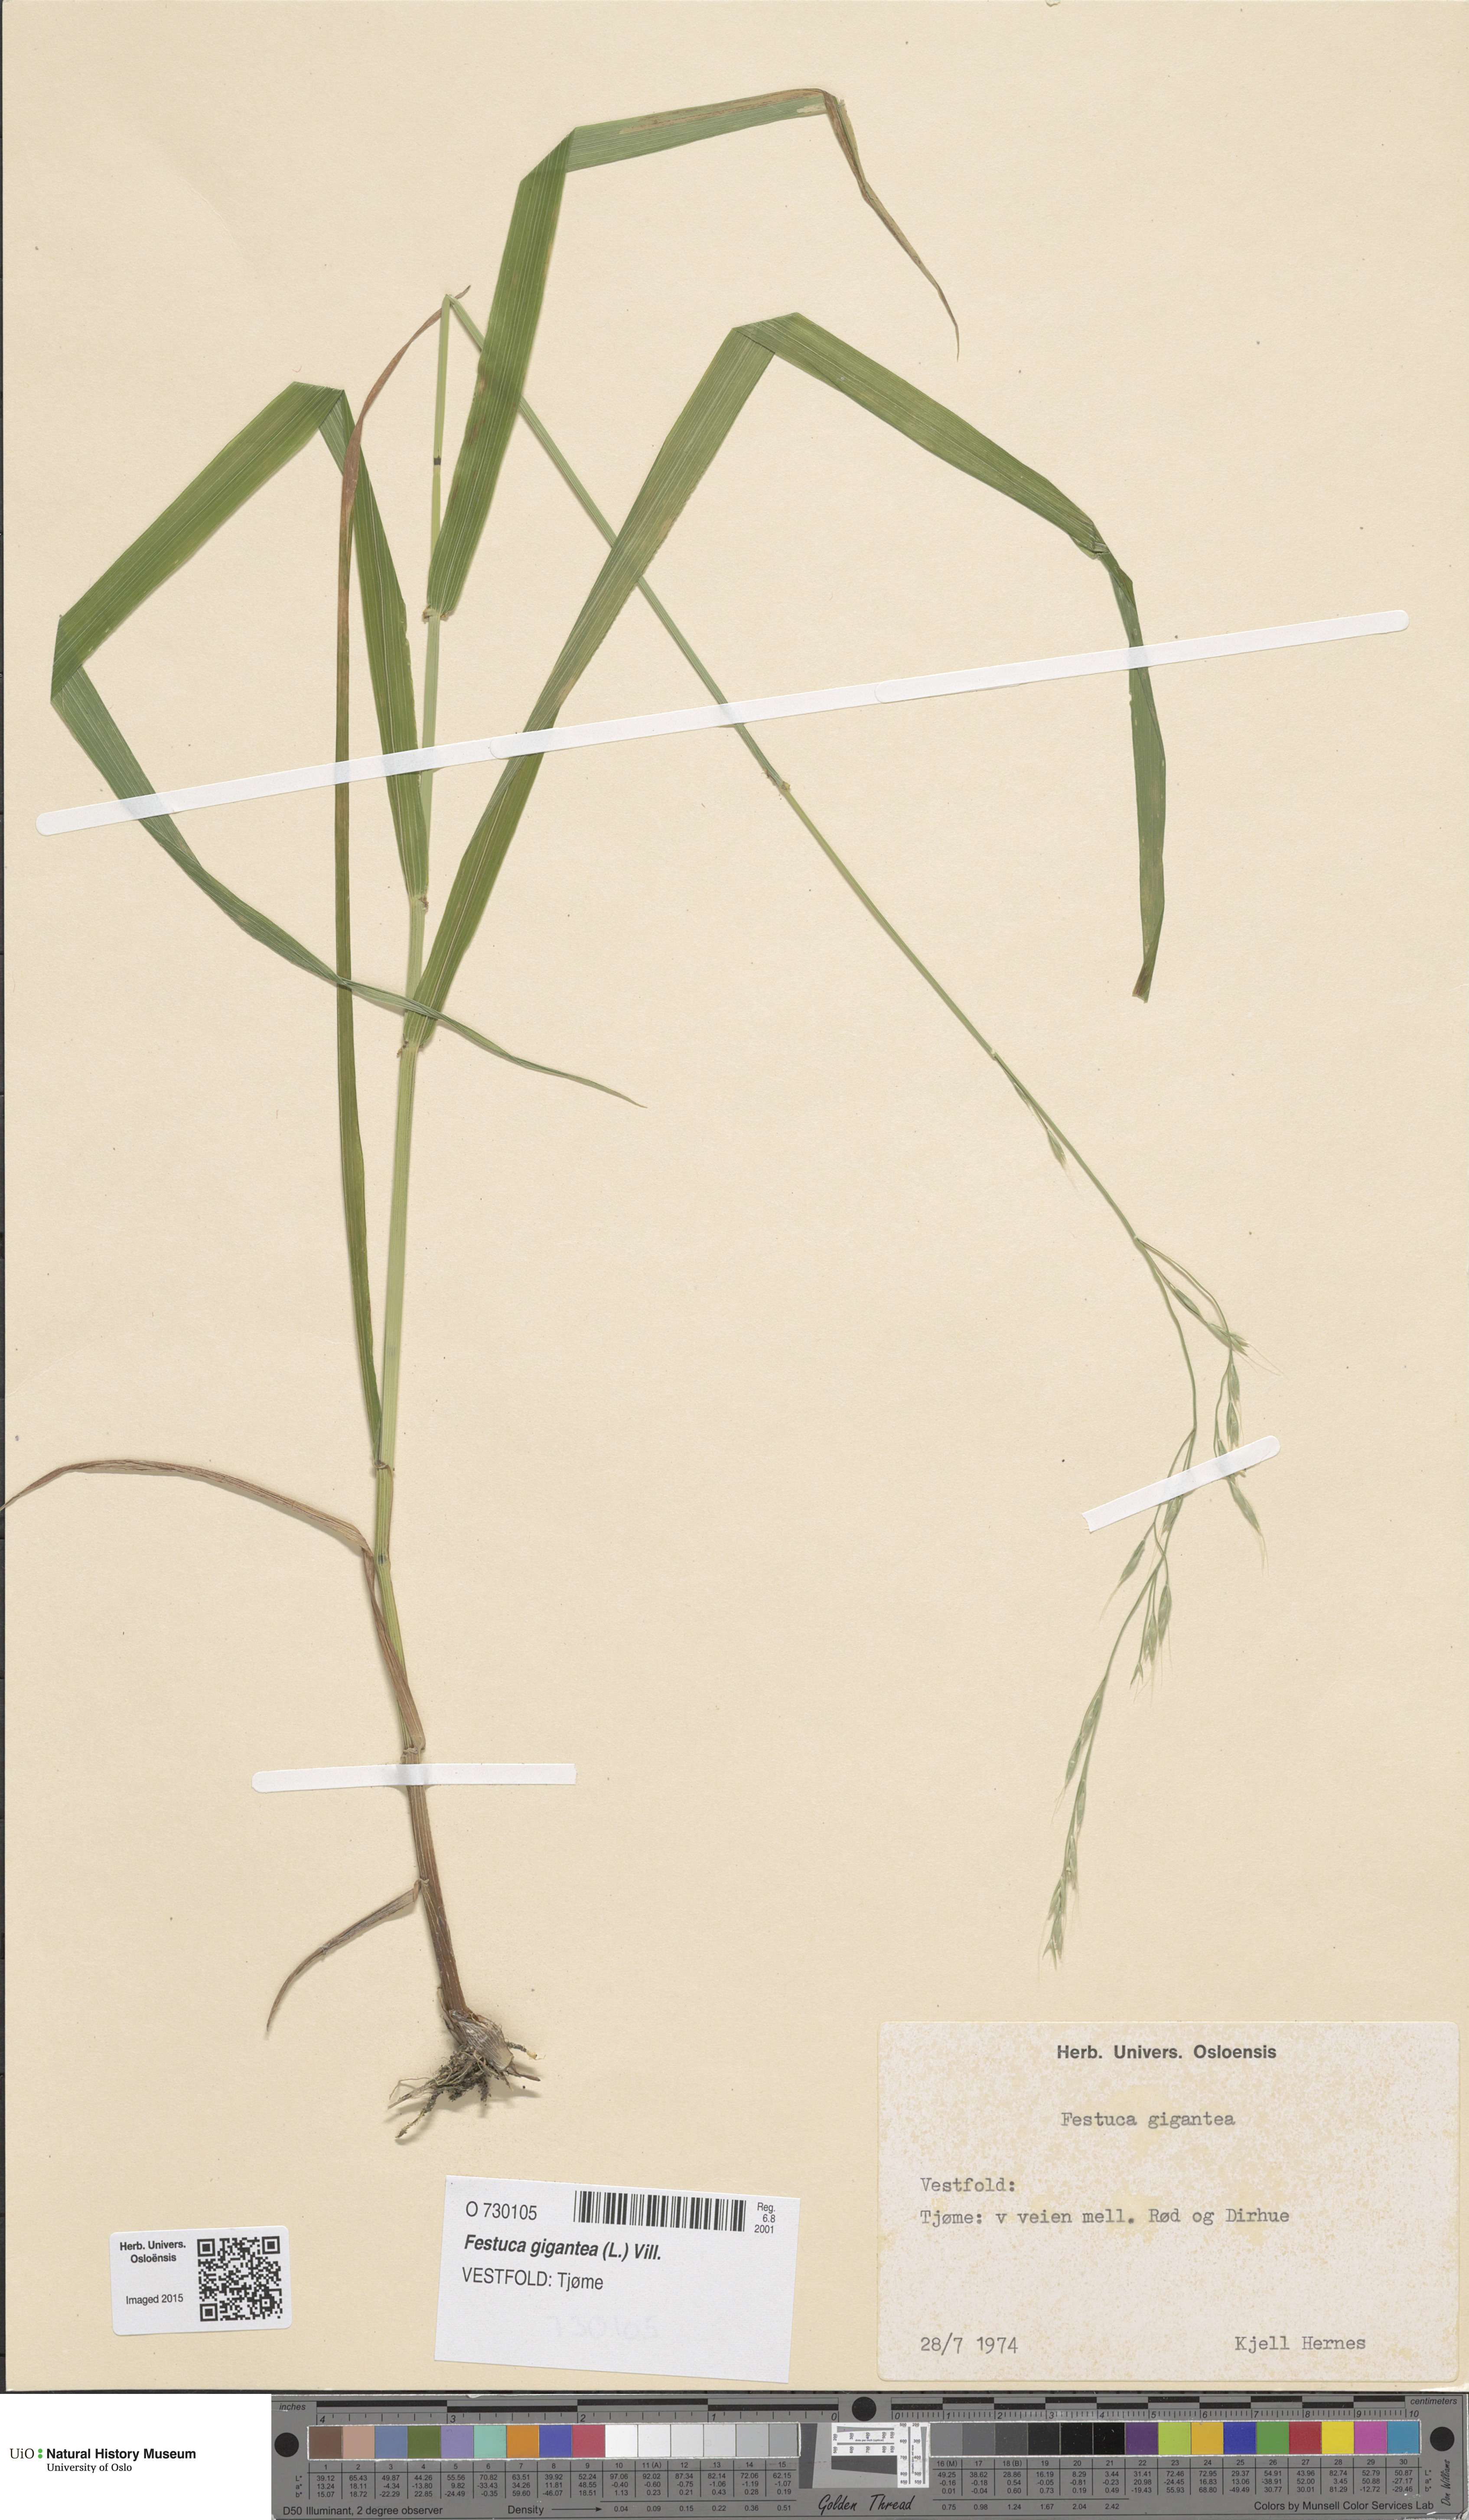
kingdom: Plantae
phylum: Tracheophyta
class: Liliopsida
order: Poales
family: Poaceae
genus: Lolium
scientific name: Lolium giganteum
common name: Giant fescue
